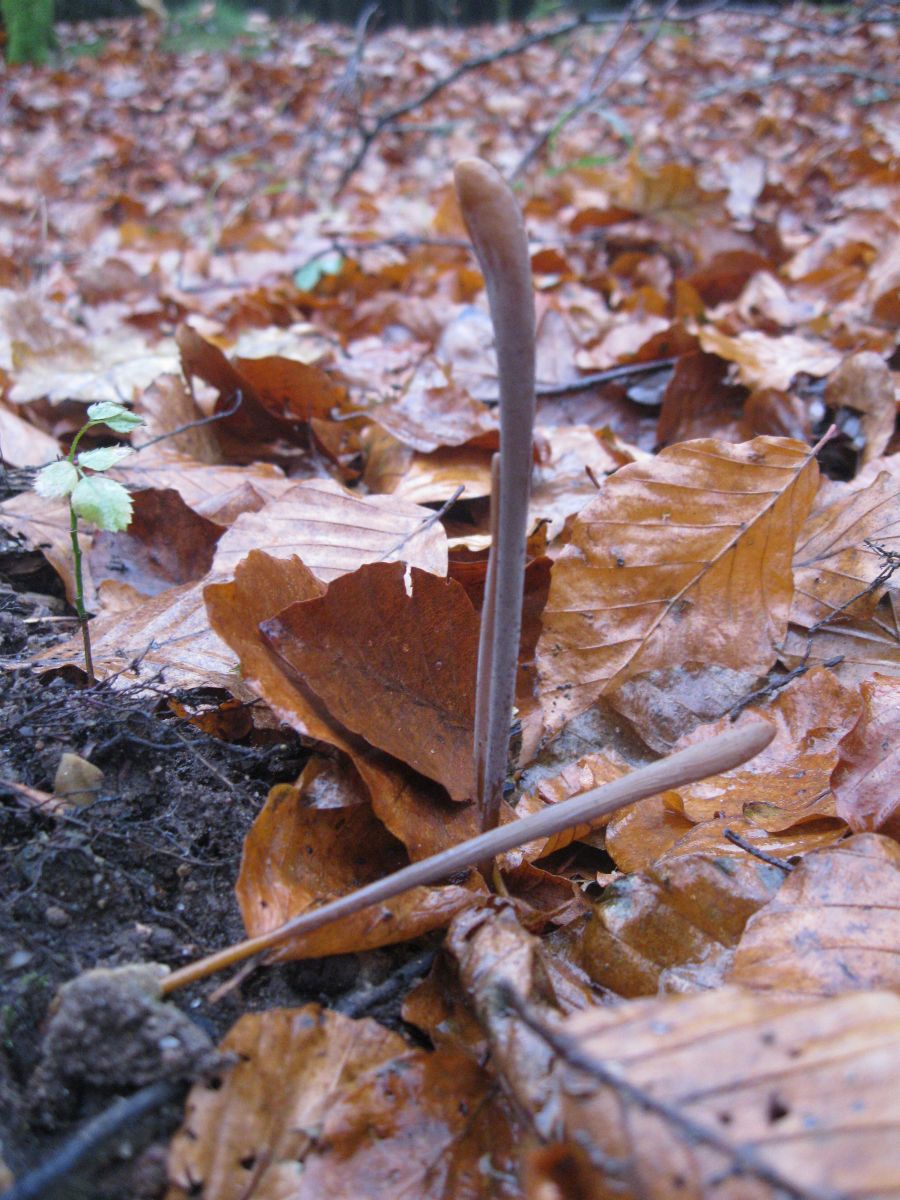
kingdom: Fungi
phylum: Basidiomycota
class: Agaricomycetes
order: Agaricales
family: Typhulaceae
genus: Typhula
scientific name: Typhula fistulosa
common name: pibet rørkølle
